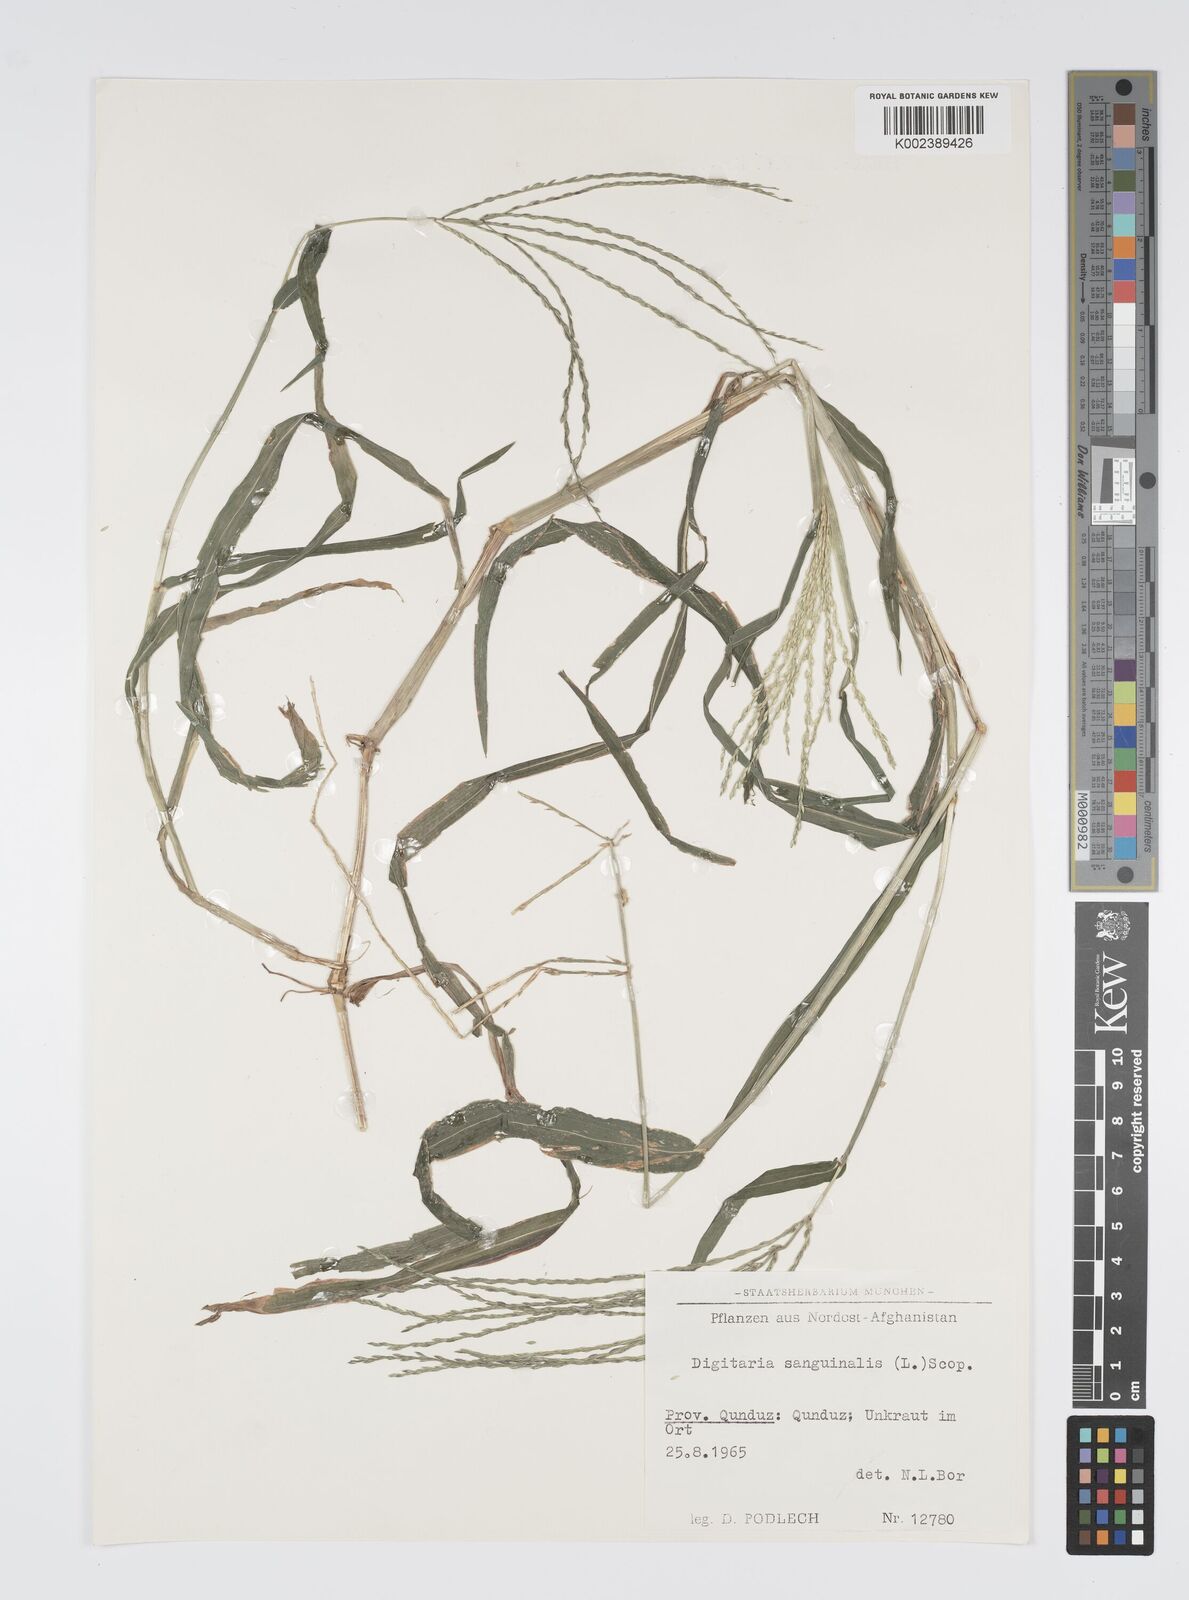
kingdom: Plantae
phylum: Tracheophyta
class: Liliopsida
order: Poales
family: Poaceae
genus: Digitaria
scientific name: Digitaria sanguinalis
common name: Hairy crabgrass
